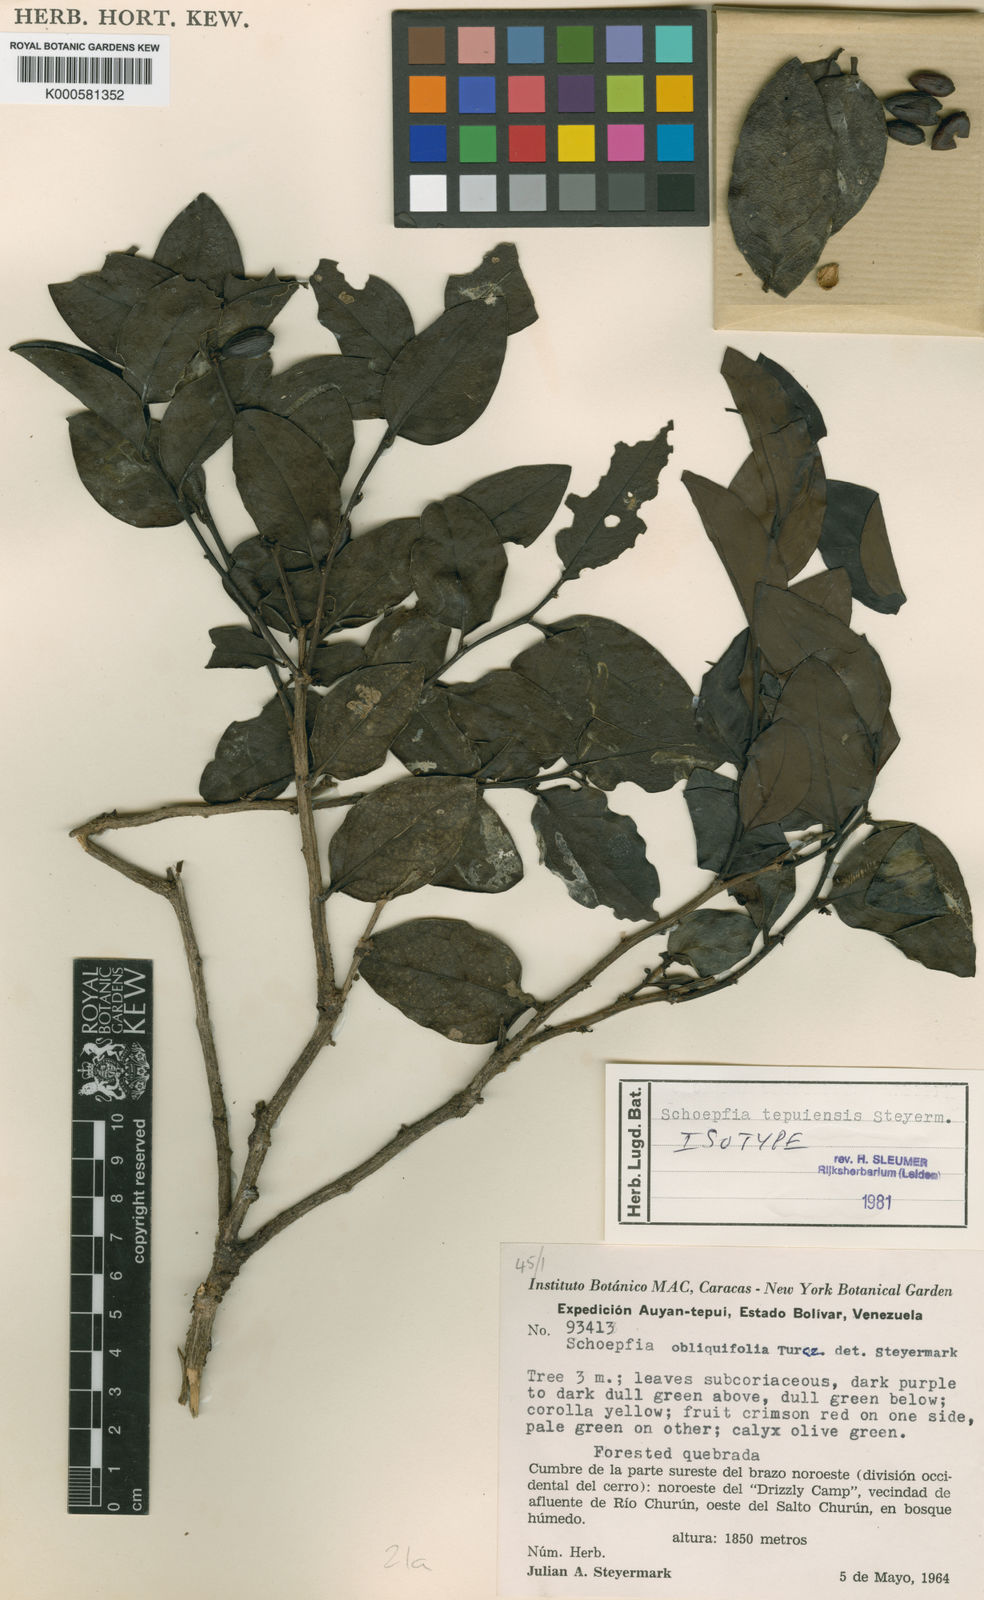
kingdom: Plantae
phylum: Tracheophyta
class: Magnoliopsida
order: Santalales
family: Schoepfiaceae
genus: Schoepfia
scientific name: Schoepfia tepuiensis
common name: Tepuí graytwig
